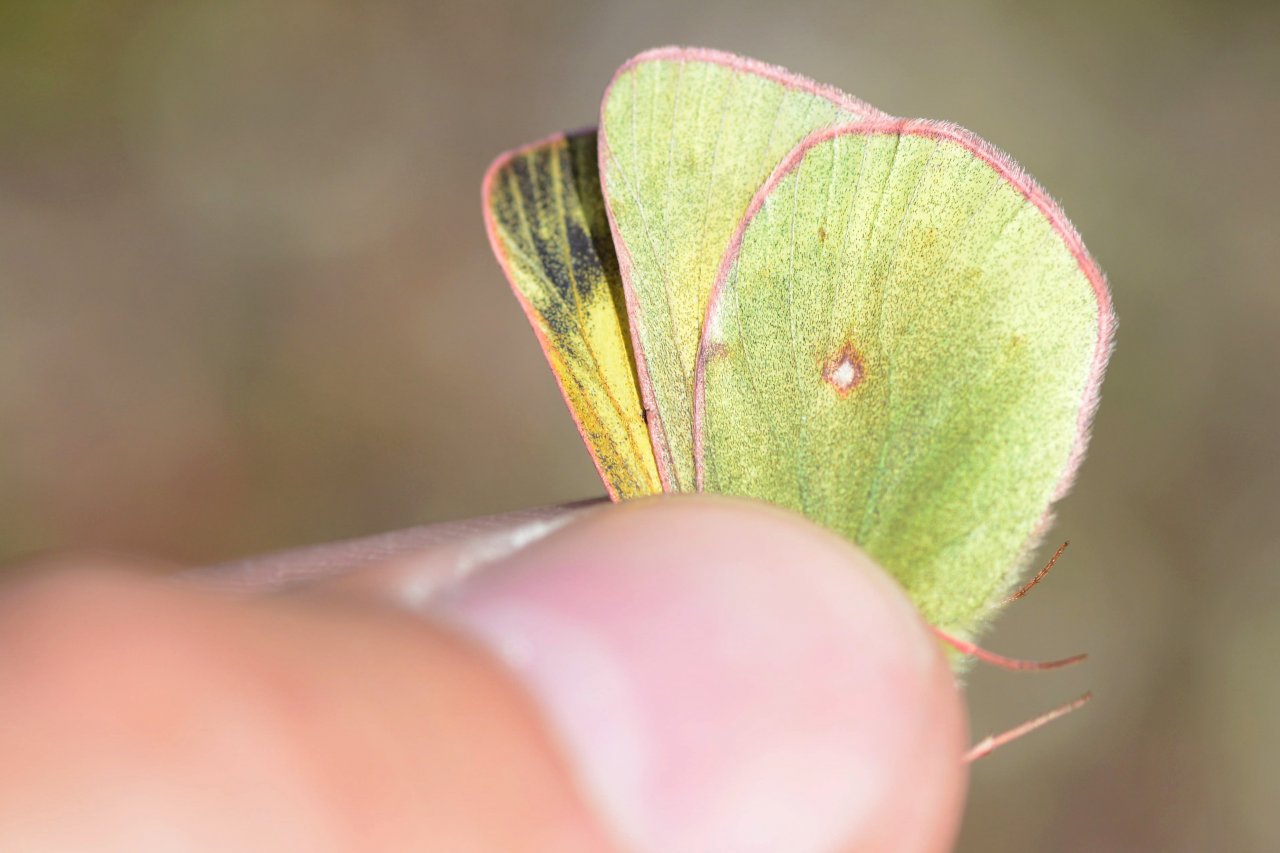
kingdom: Animalia
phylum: Arthropoda
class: Insecta
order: Lepidoptera
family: Pieridae
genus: Colias
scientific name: Colias tyche
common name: Booth's Sulphur
